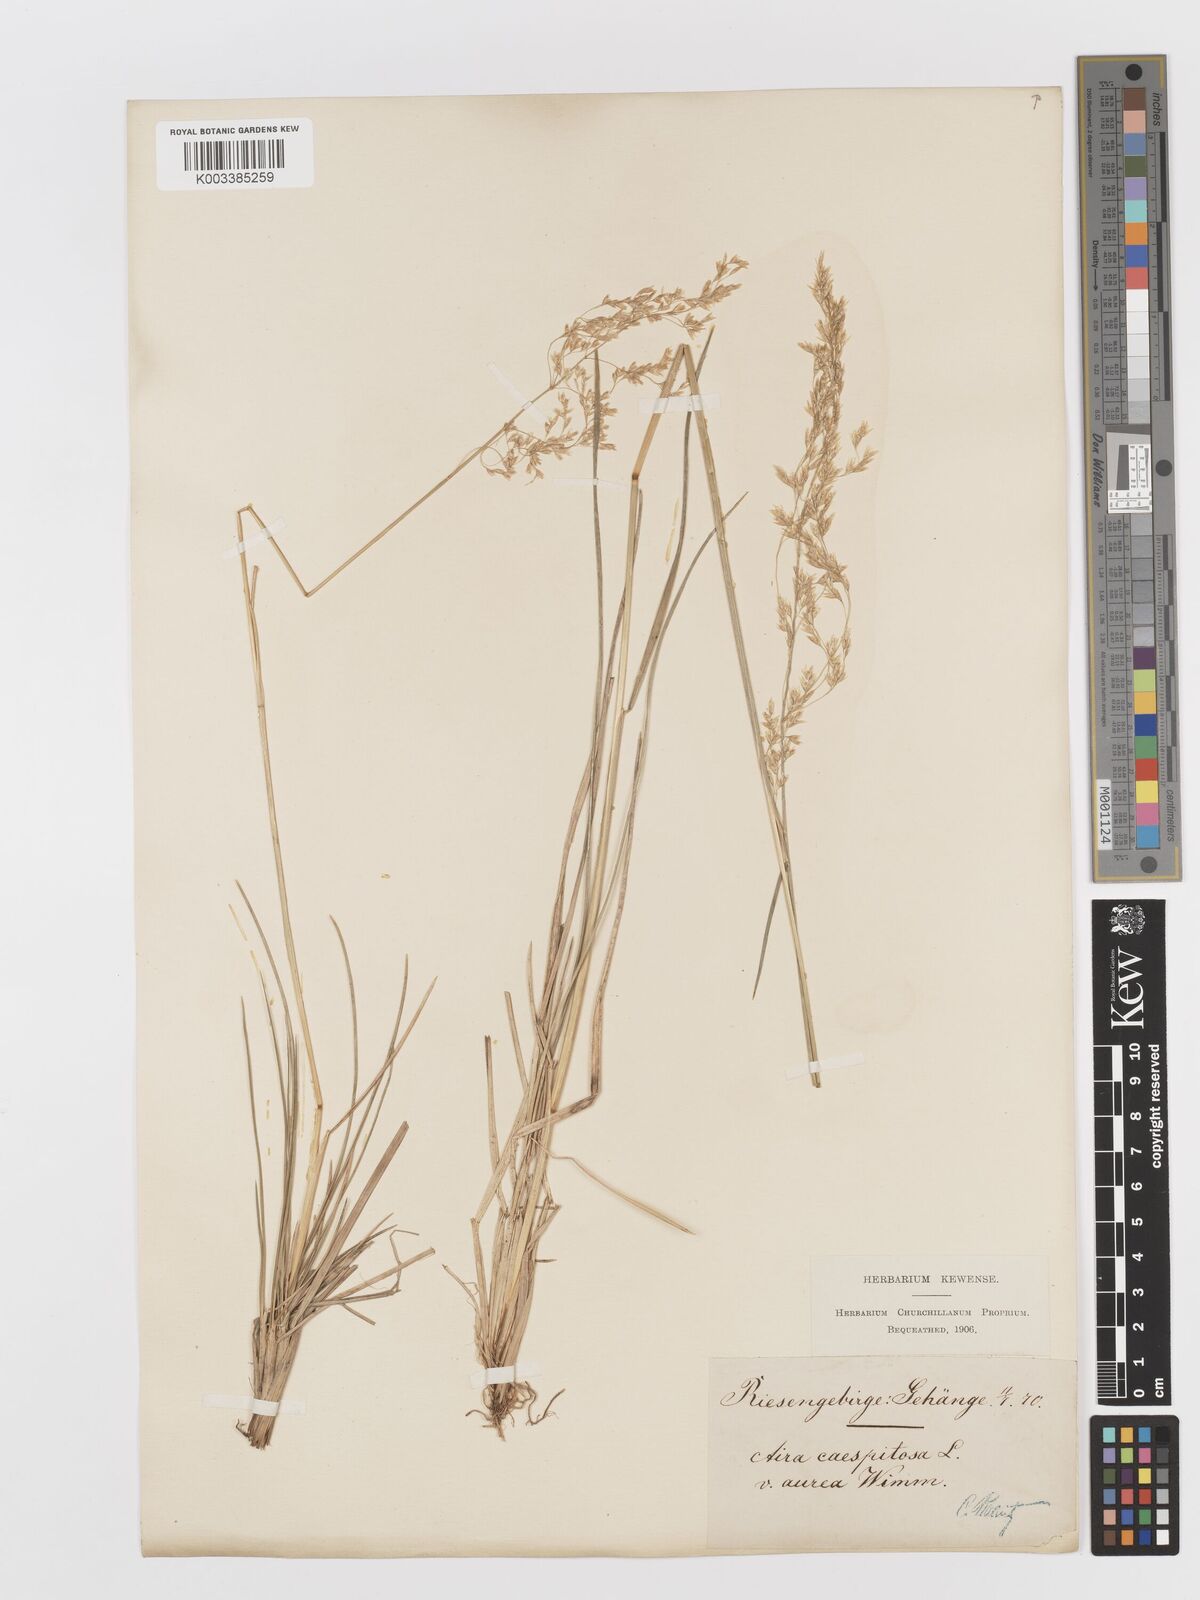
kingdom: Plantae
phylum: Tracheophyta
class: Liliopsida
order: Poales
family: Poaceae
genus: Deschampsia
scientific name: Deschampsia cespitosa
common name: Tufted hair-grass
